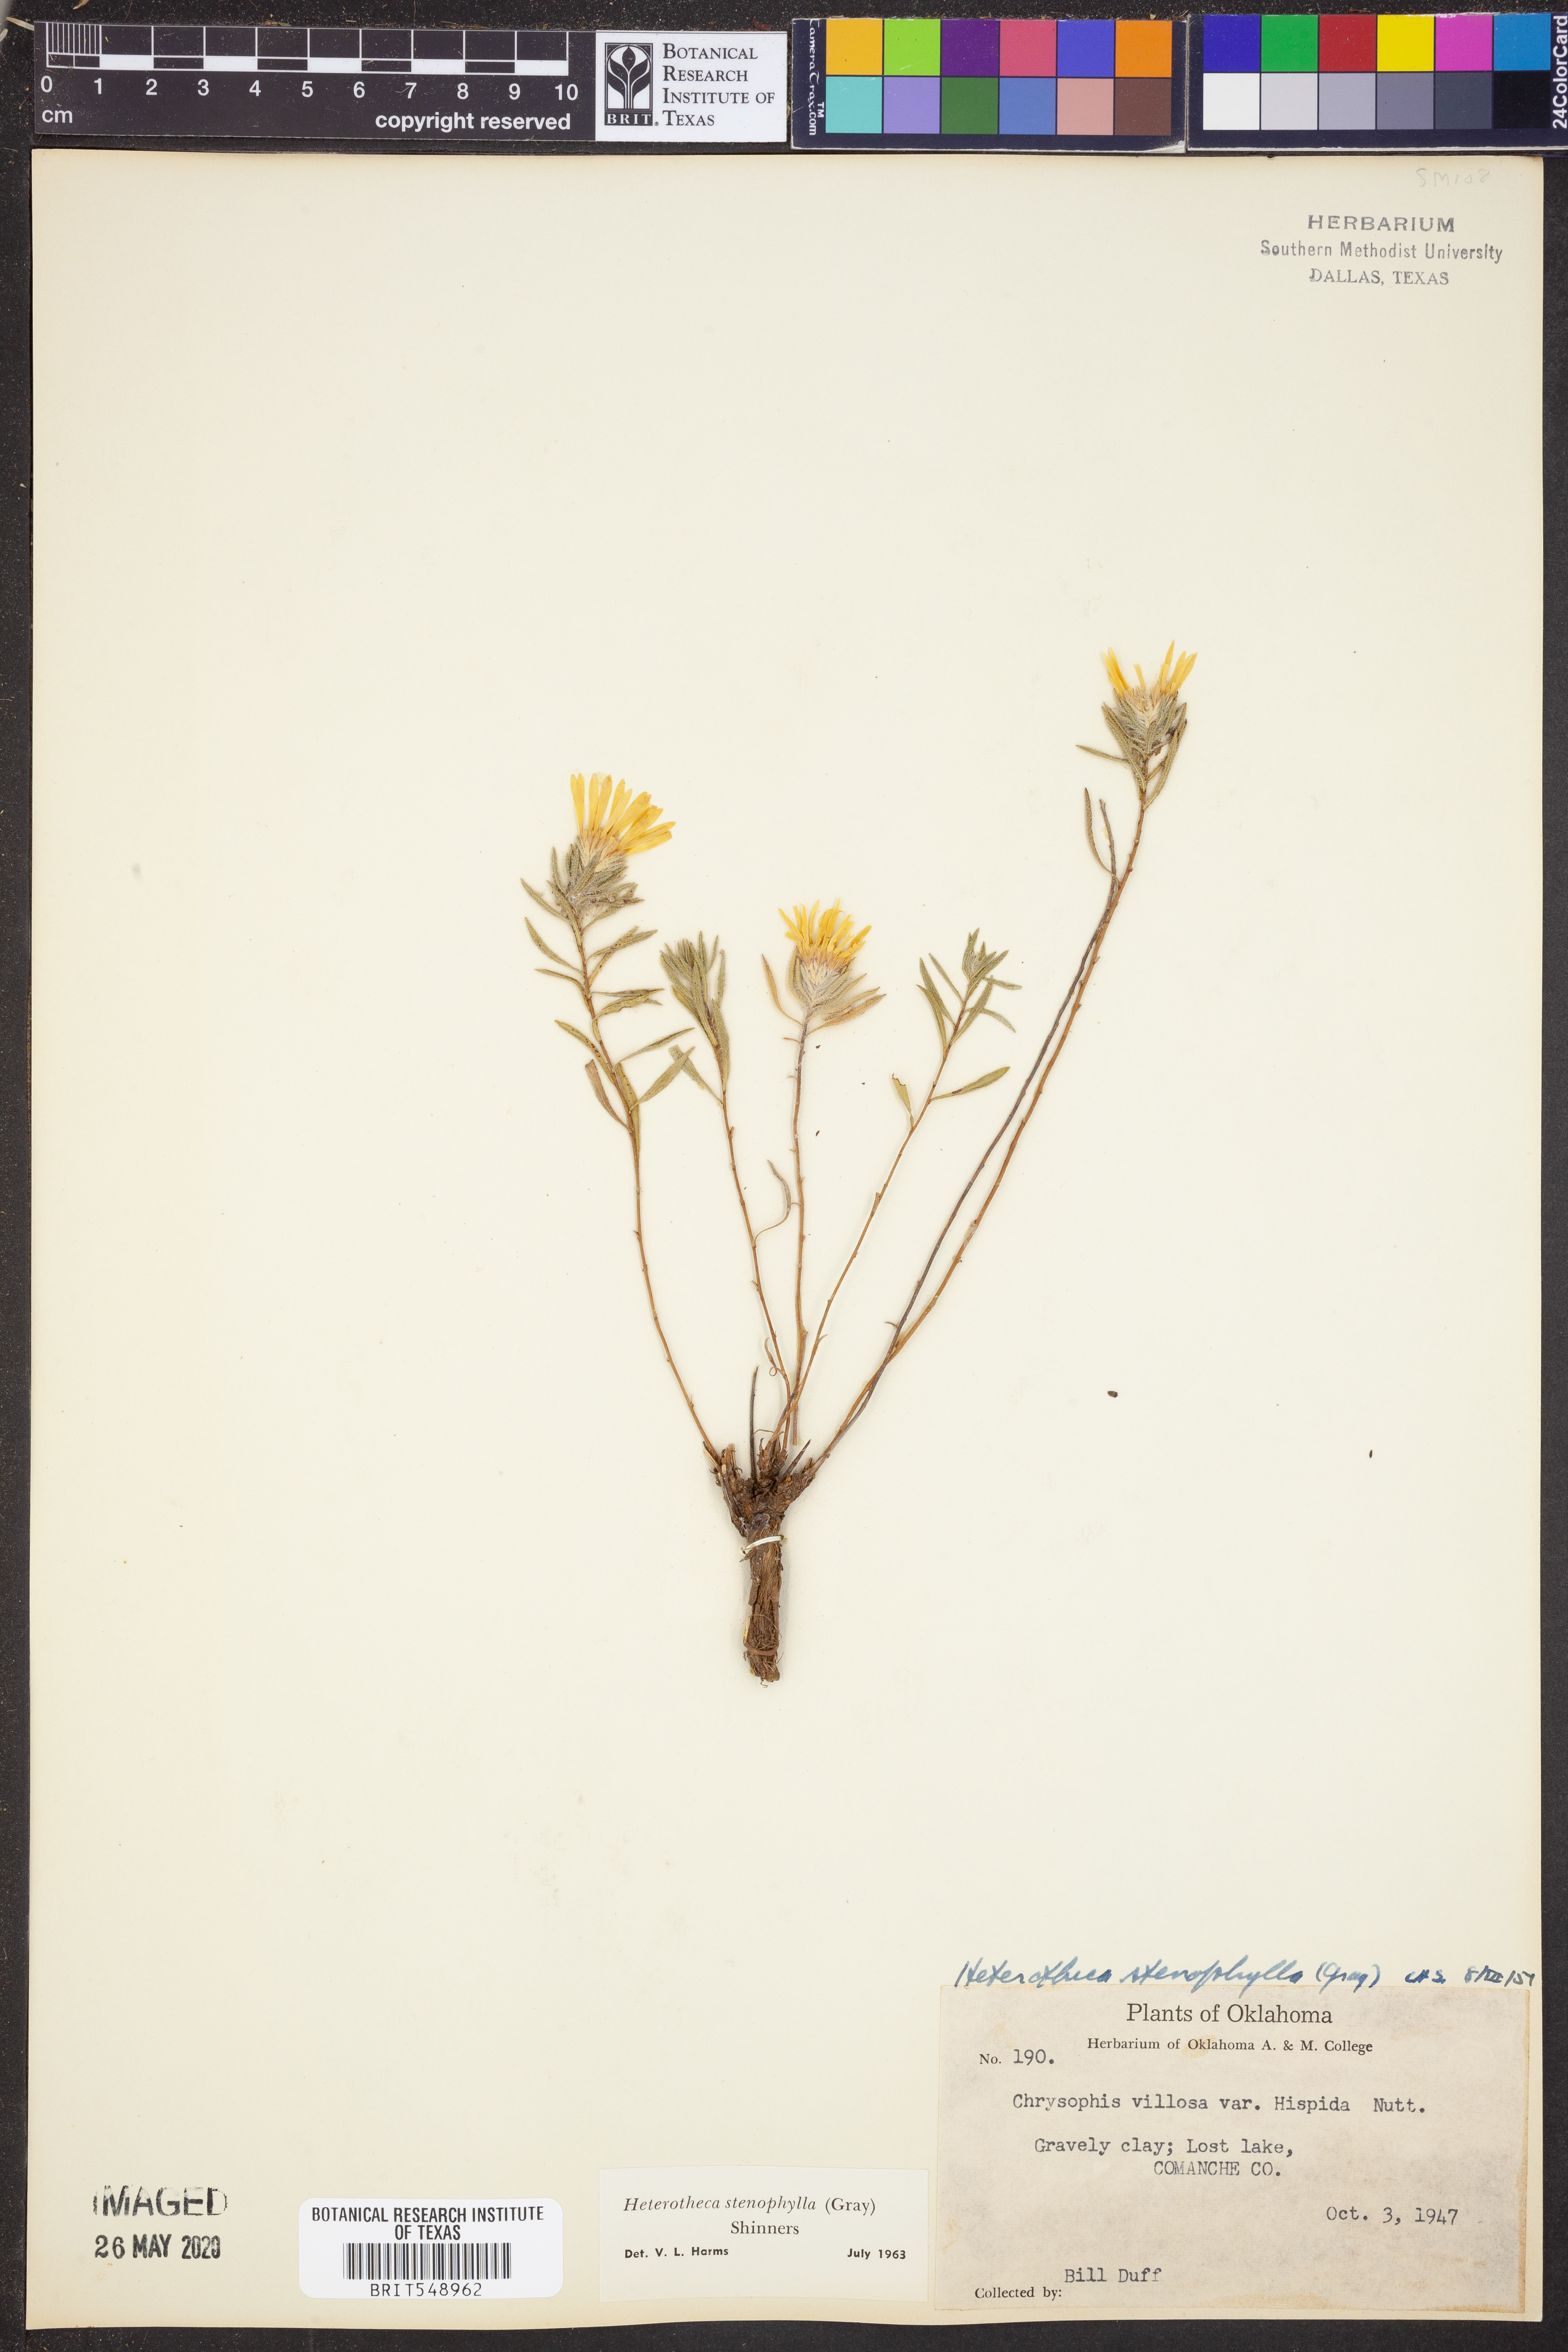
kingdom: Plantae
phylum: Tracheophyta
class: Magnoliopsida
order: Asterales
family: Asteraceae
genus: Heterotheca
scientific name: Heterotheca stenophylla
